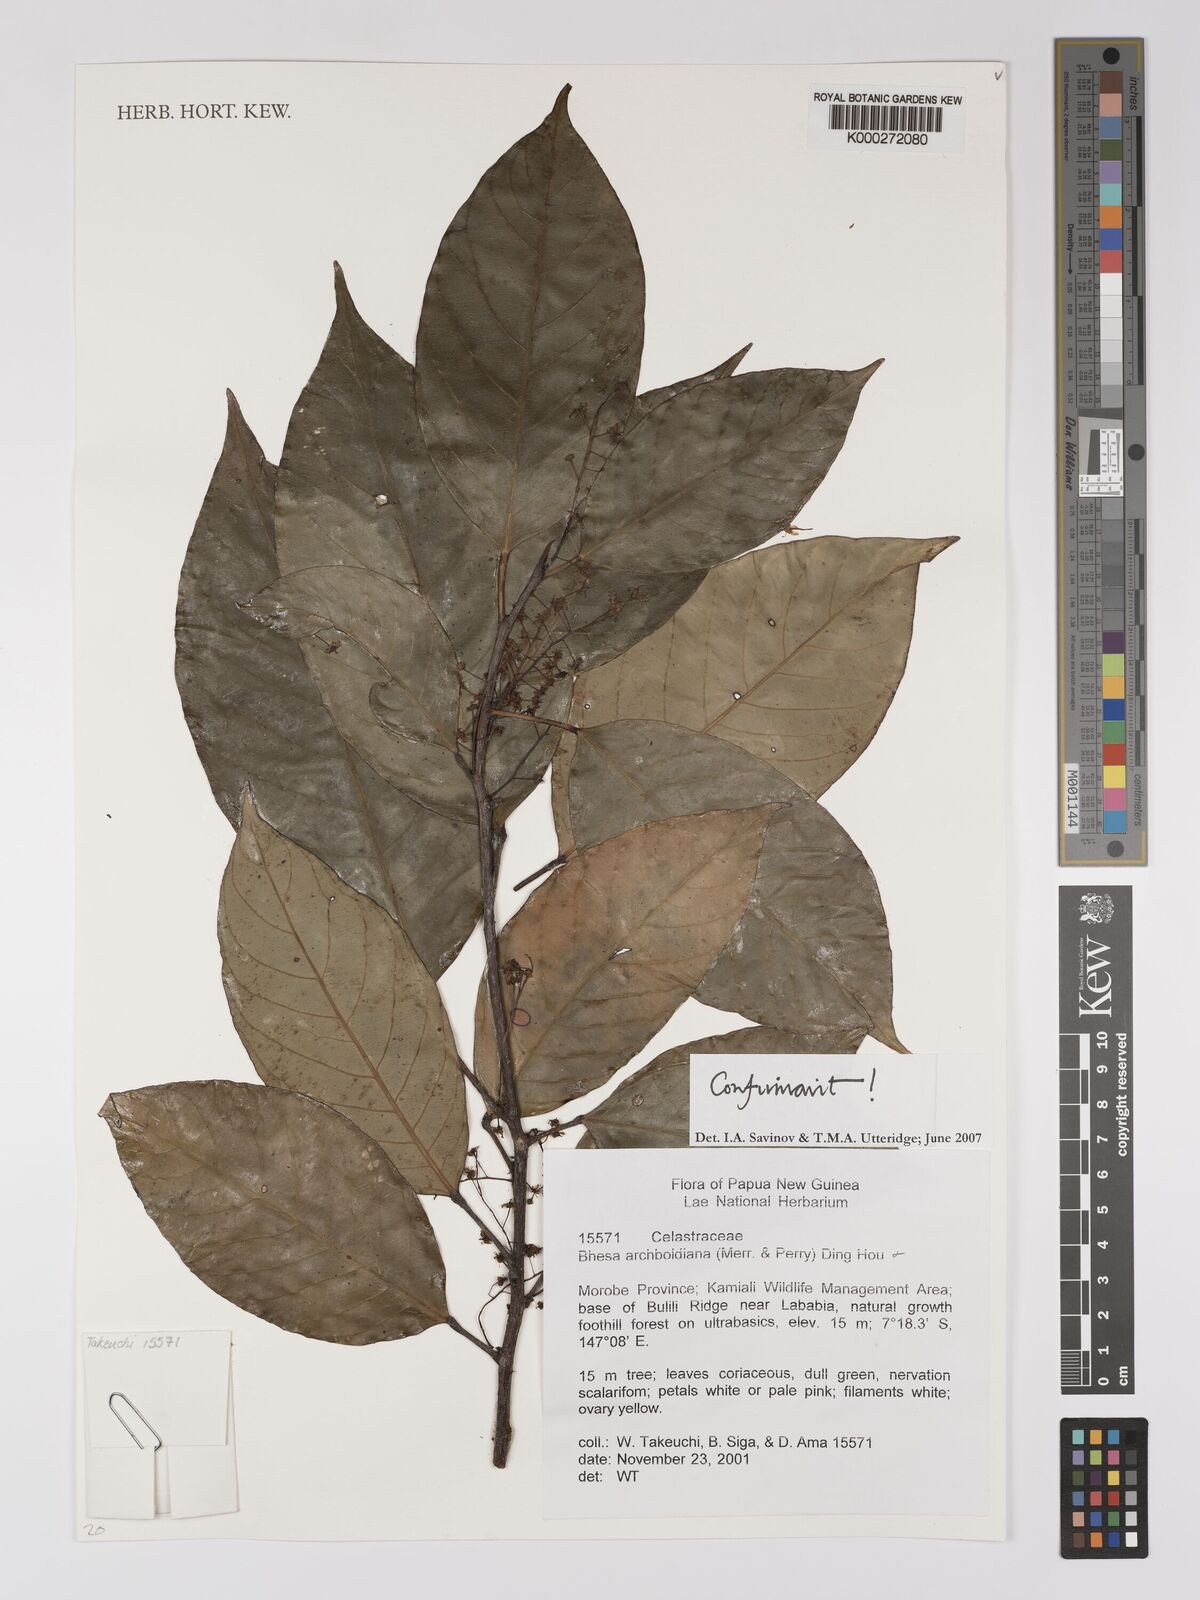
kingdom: Plantae
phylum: Tracheophyta
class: Magnoliopsida
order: Malpighiales
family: Centroplacaceae
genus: Bhesa
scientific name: Bhesa archboldiana
